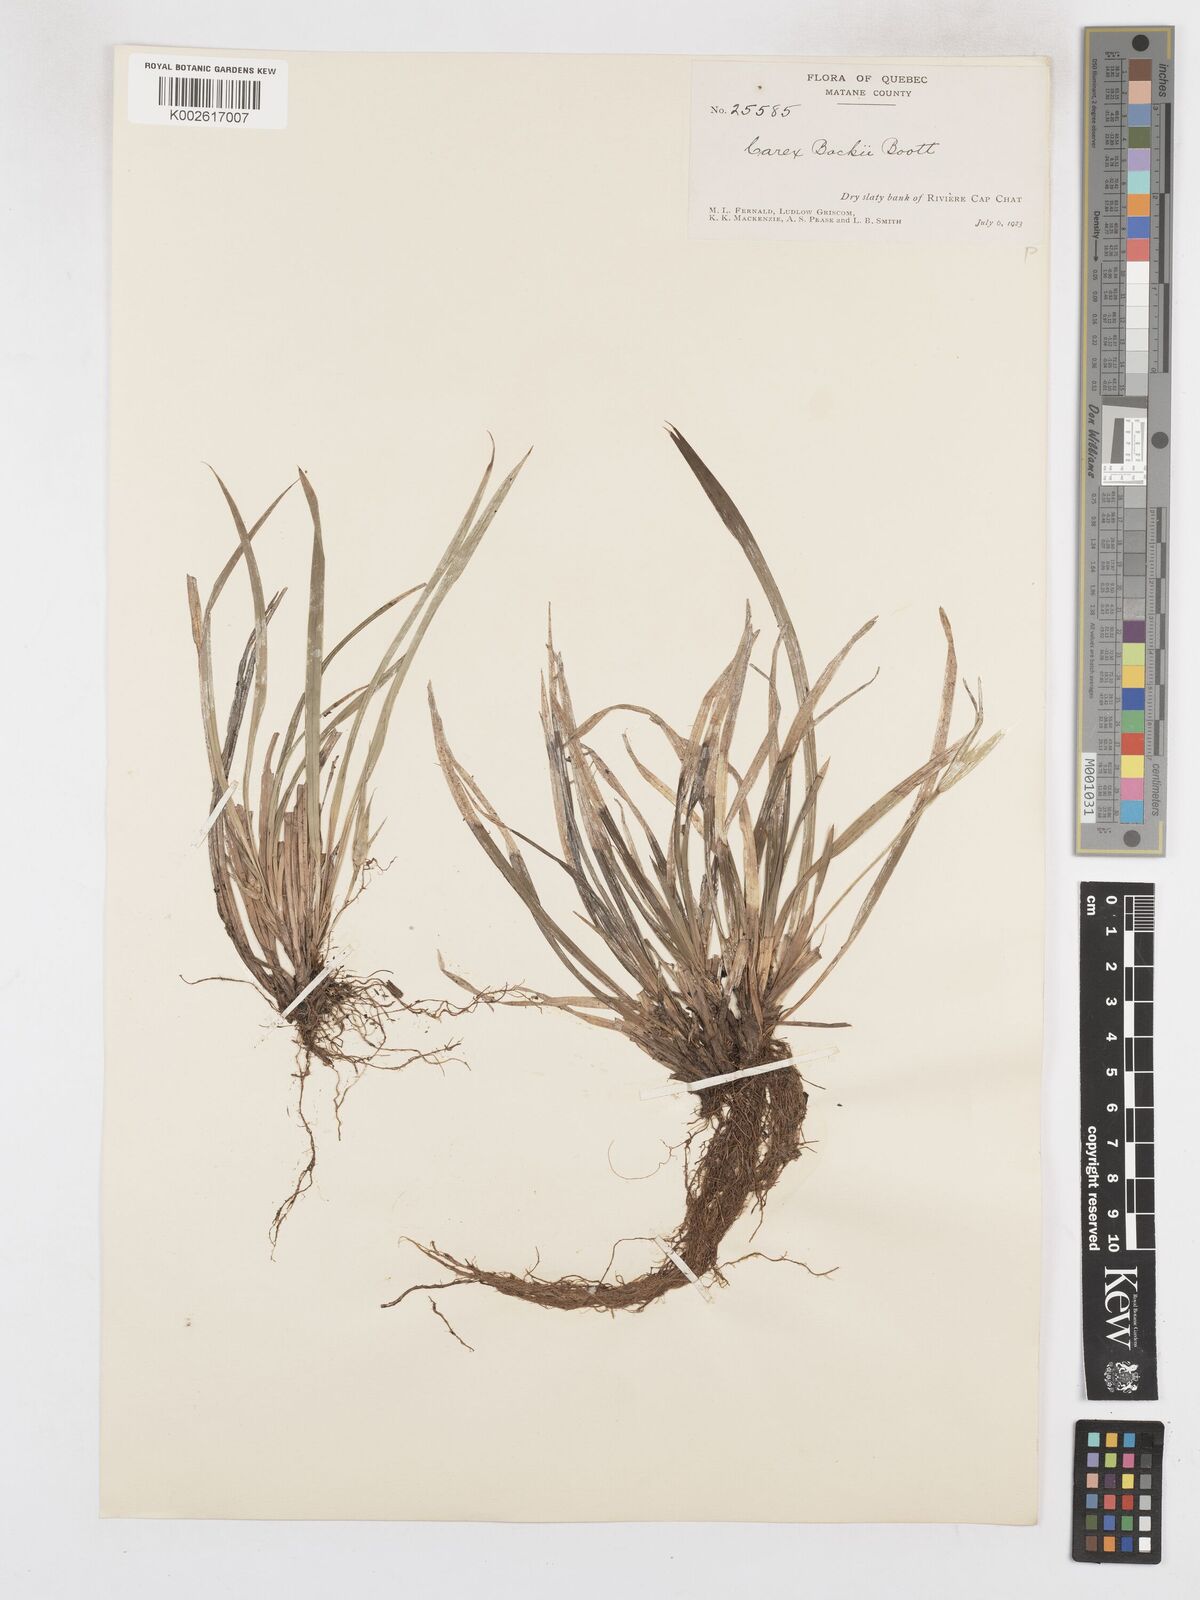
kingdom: Plantae
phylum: Tracheophyta
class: Liliopsida
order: Poales
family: Cyperaceae
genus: Carex
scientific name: Carex backii
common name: Back's sedge
